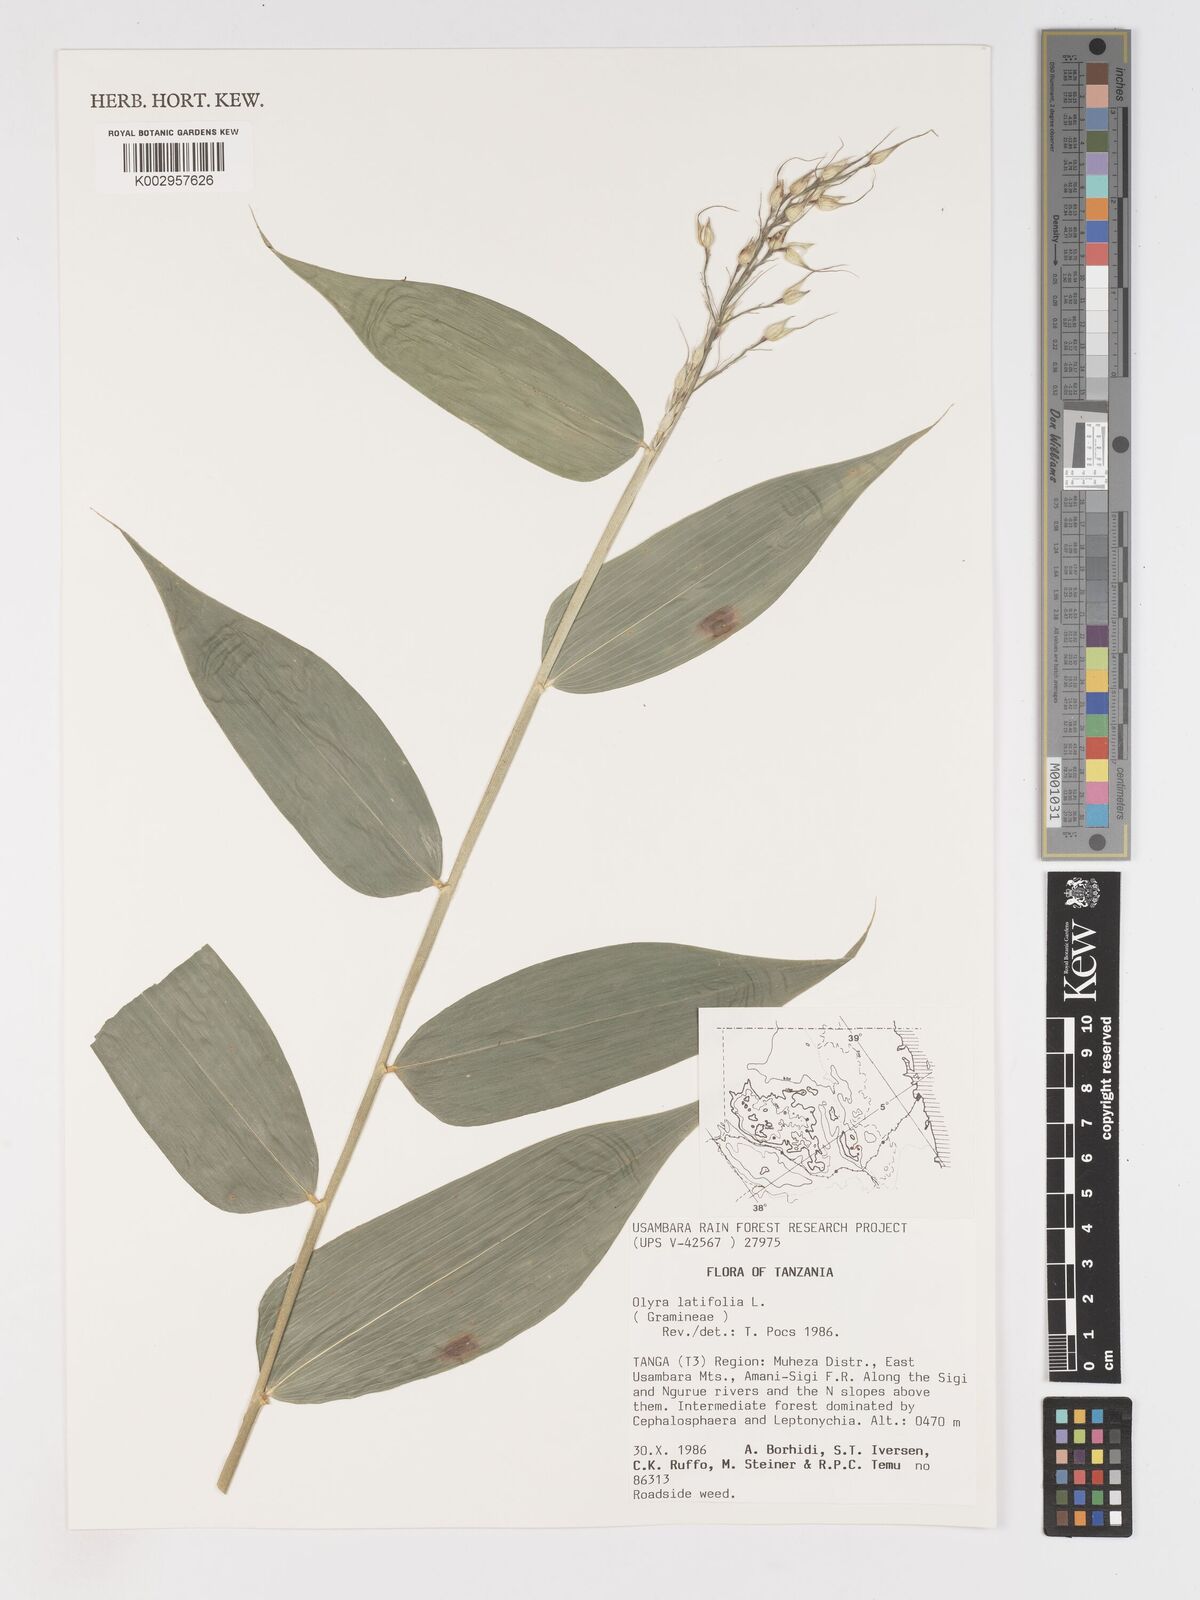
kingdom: Plantae
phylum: Tracheophyta
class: Liliopsida
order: Poales
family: Poaceae
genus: Olyra
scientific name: Olyra latifolia
